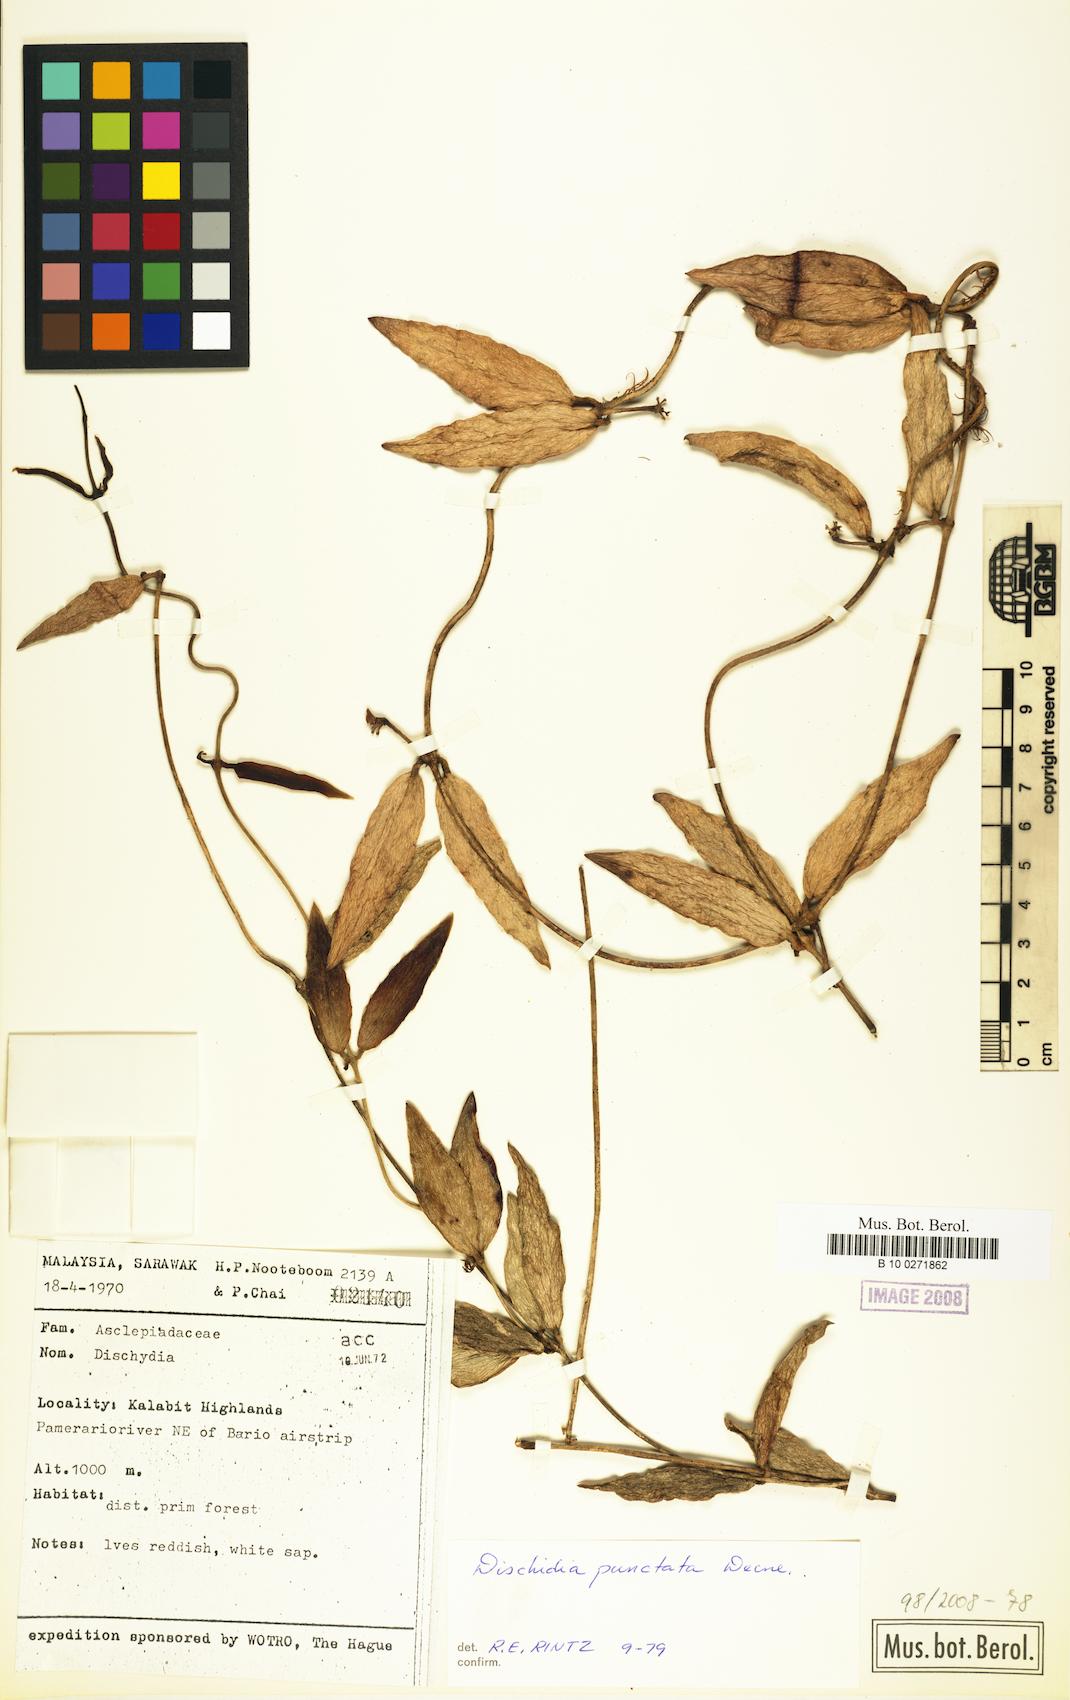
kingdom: Plantae
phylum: Tracheophyta
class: Magnoliopsida
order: Gentianales
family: Apocynaceae
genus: Dischidia
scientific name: Dischidia punctata
